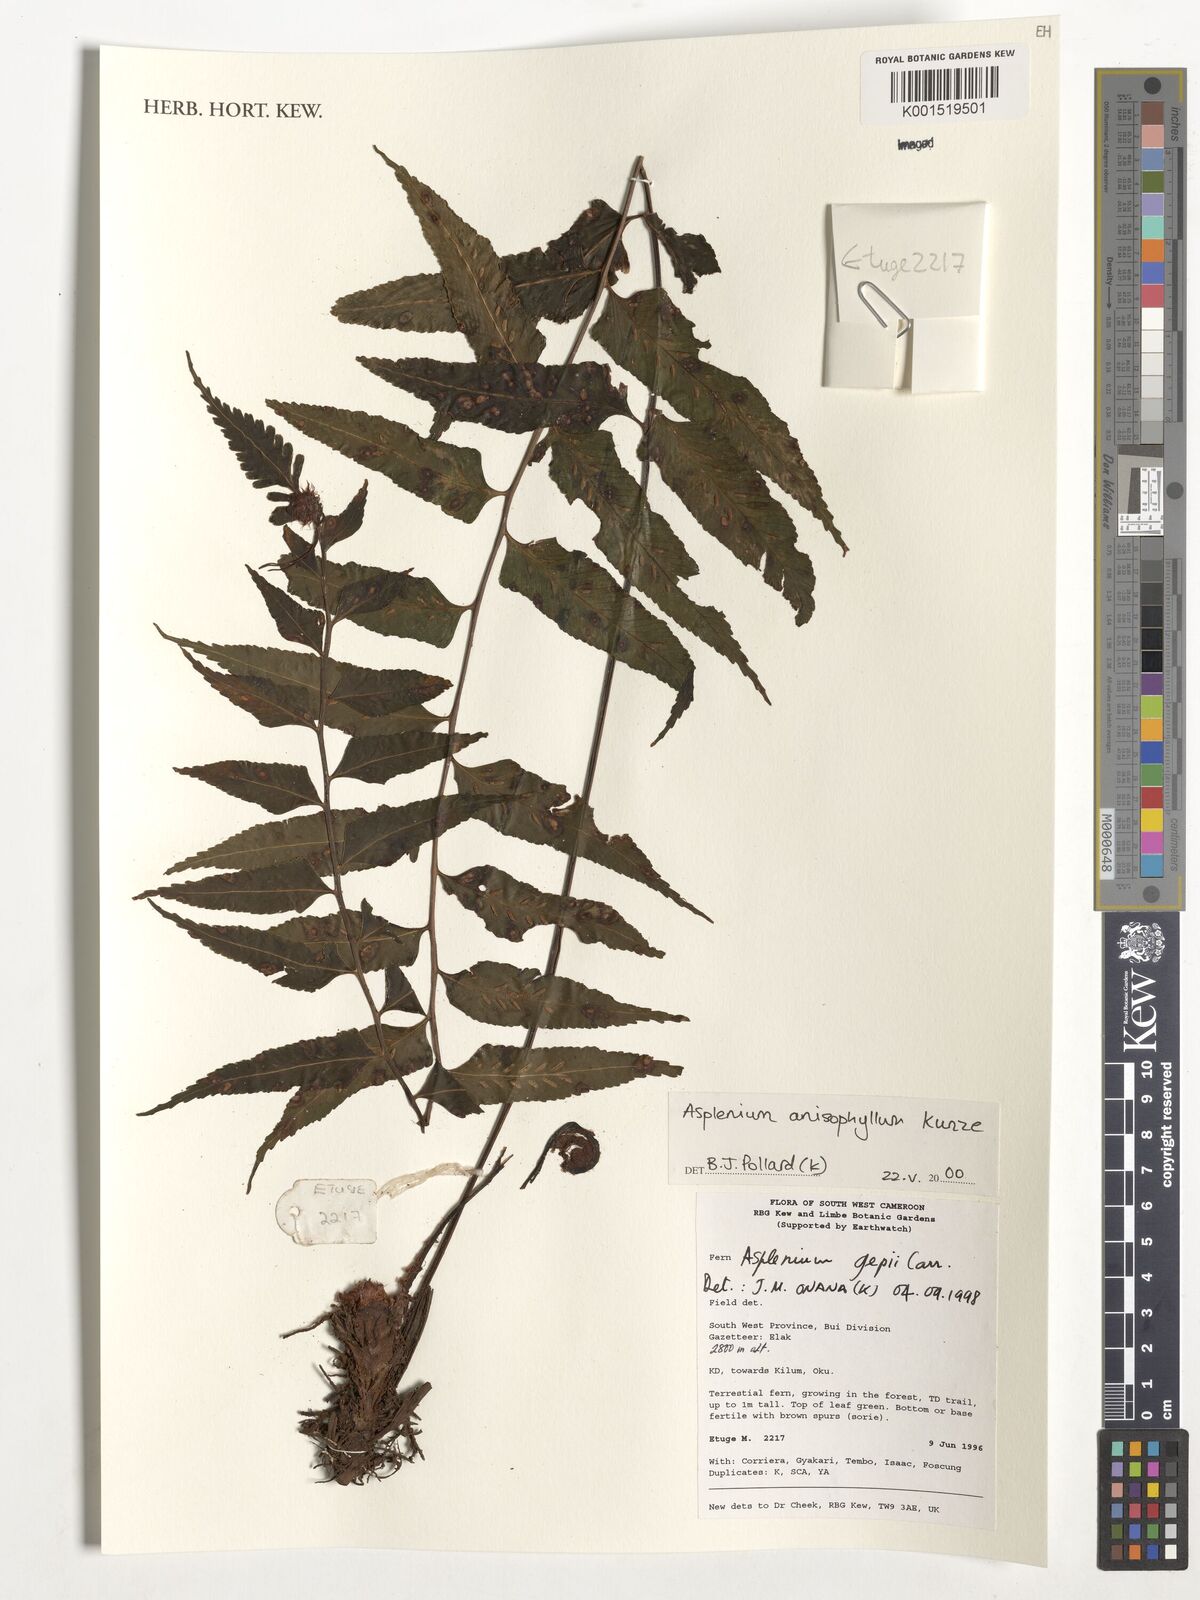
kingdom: Plantae
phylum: Tracheophyta
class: Polypodiopsida
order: Polypodiales
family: Aspleniaceae
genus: Asplenium
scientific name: Asplenium anisophyllum
